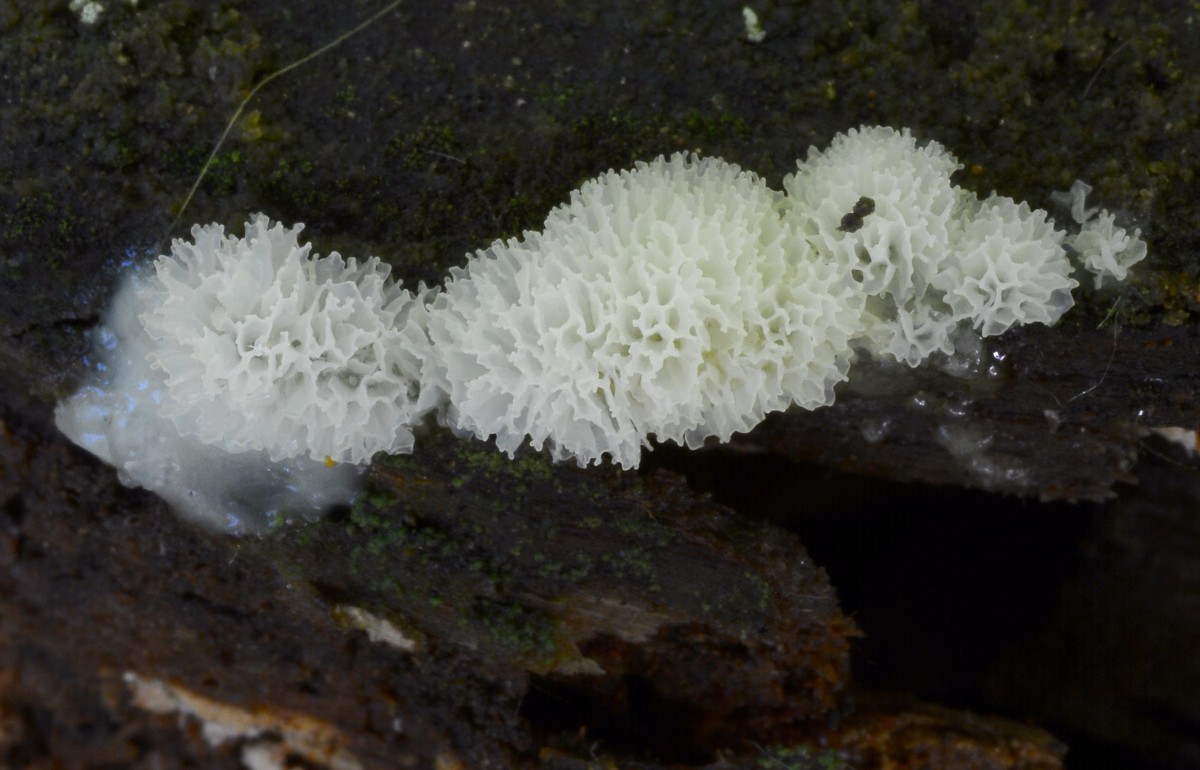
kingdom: Protozoa
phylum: Mycetozoa
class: Protosteliomycetes
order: Ceratiomyxales
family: Ceratiomyxaceae
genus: Ceratiomyxa
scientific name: Ceratiomyxa fruticulosa
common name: Honeycomb coral slime mold
